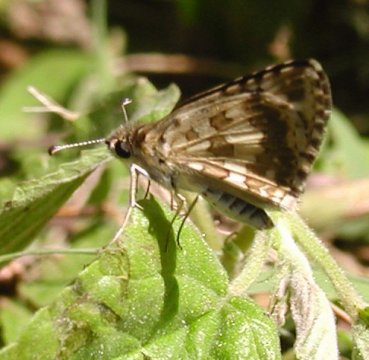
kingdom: Animalia
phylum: Arthropoda
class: Insecta
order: Lepidoptera
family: Hesperiidae
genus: Pyrgus
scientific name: Pyrgus communis
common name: Common Checkered-Skipper
